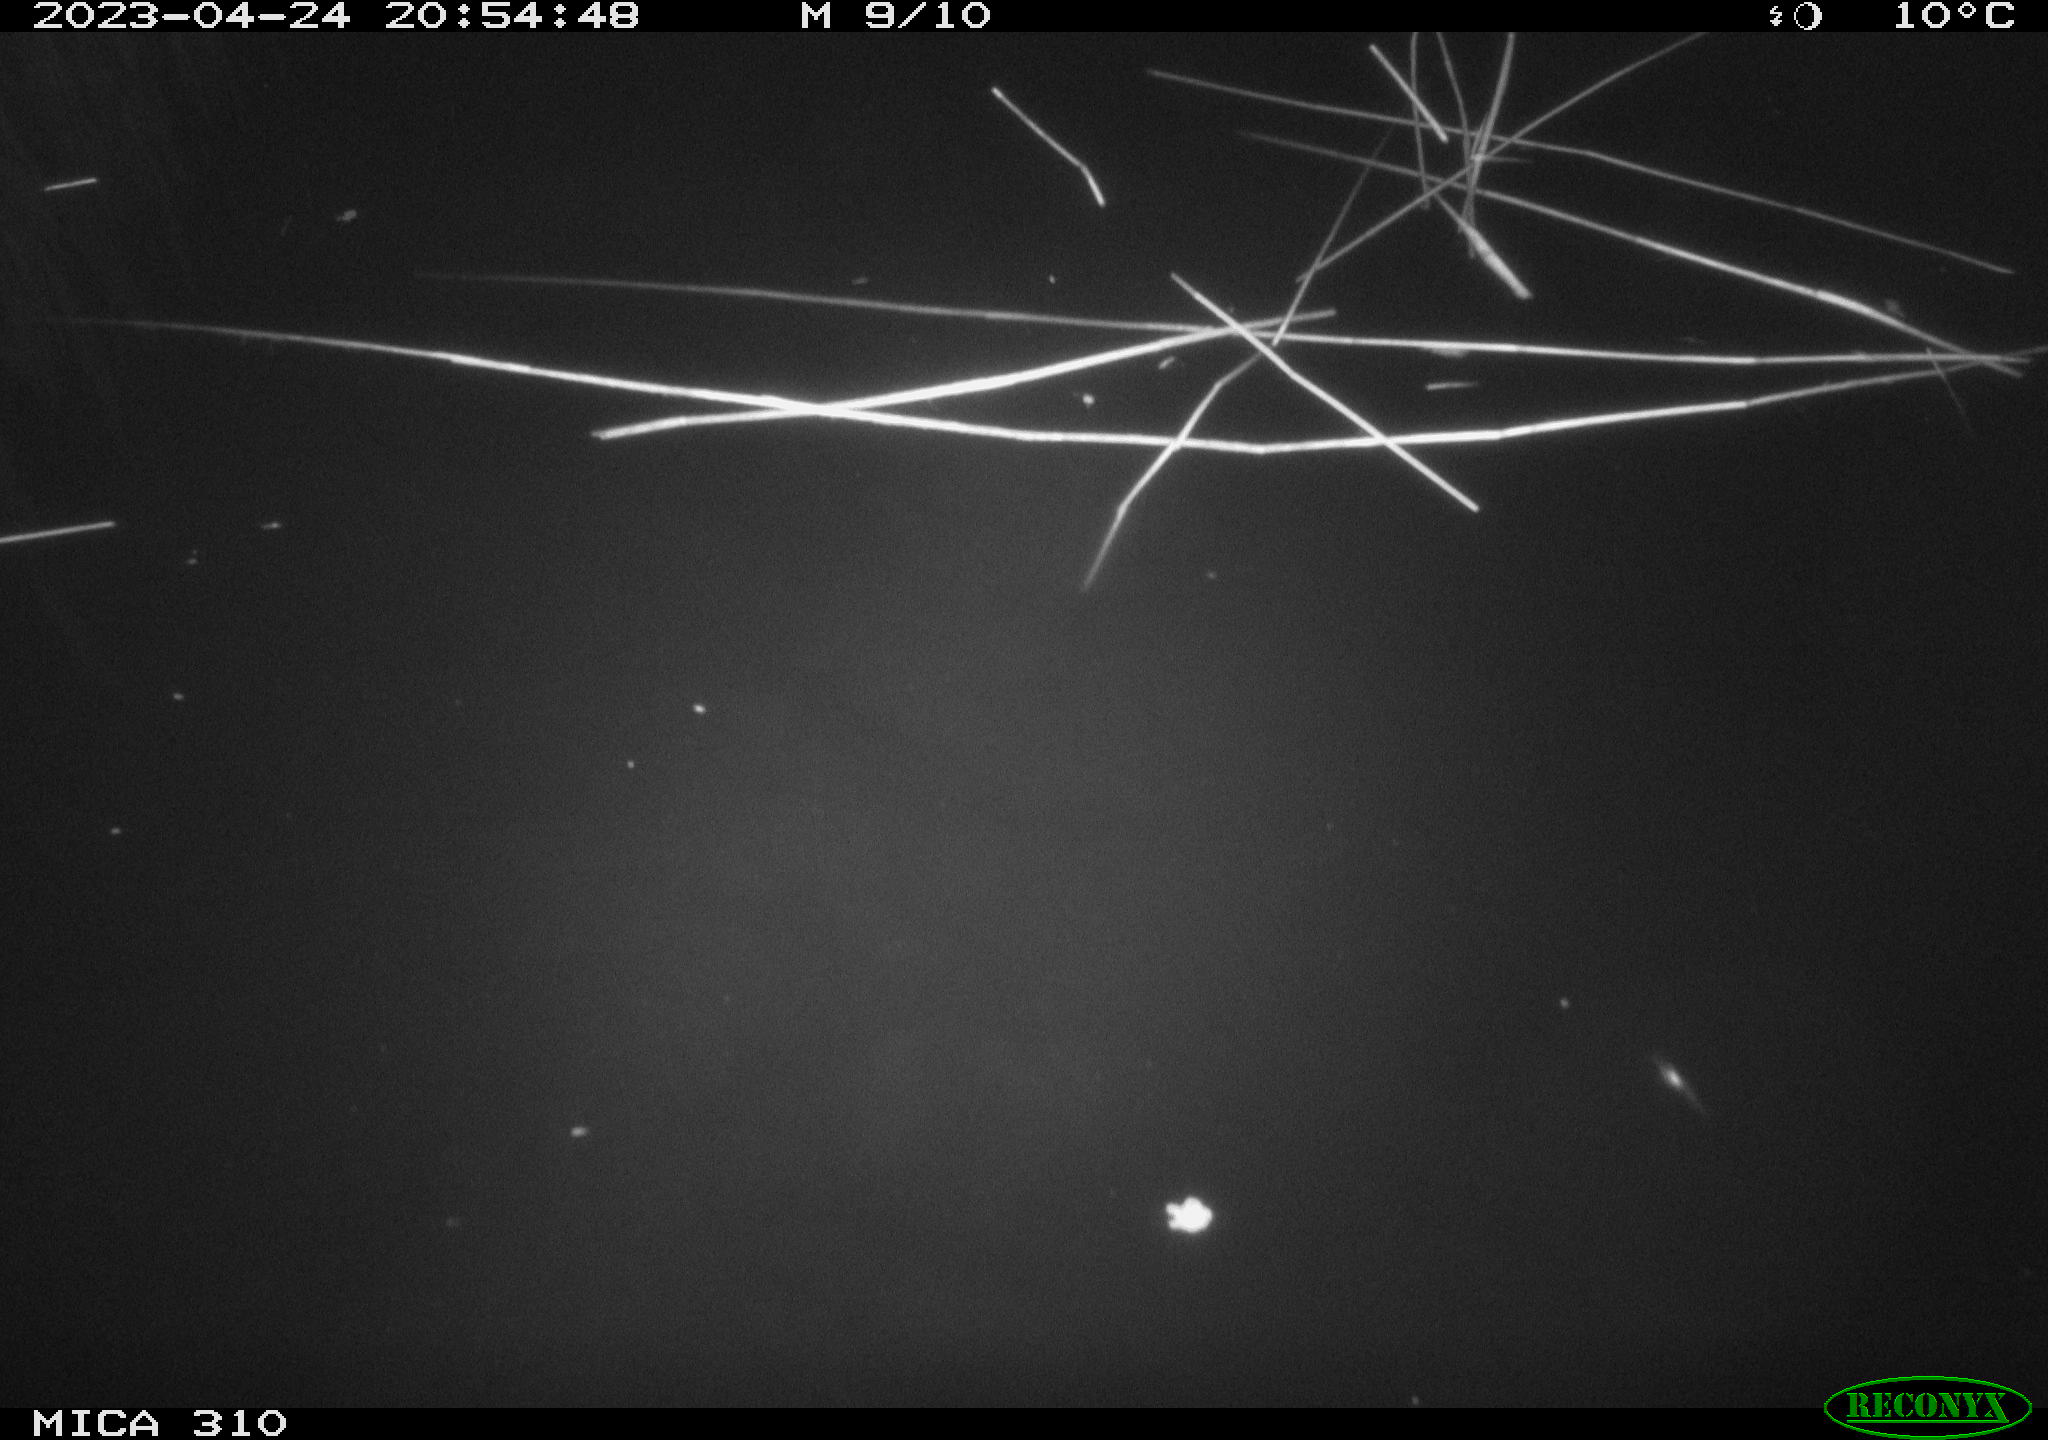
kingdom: Animalia
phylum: Chordata
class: Aves
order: Anseriformes
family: Anatidae
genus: Anas
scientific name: Anas
